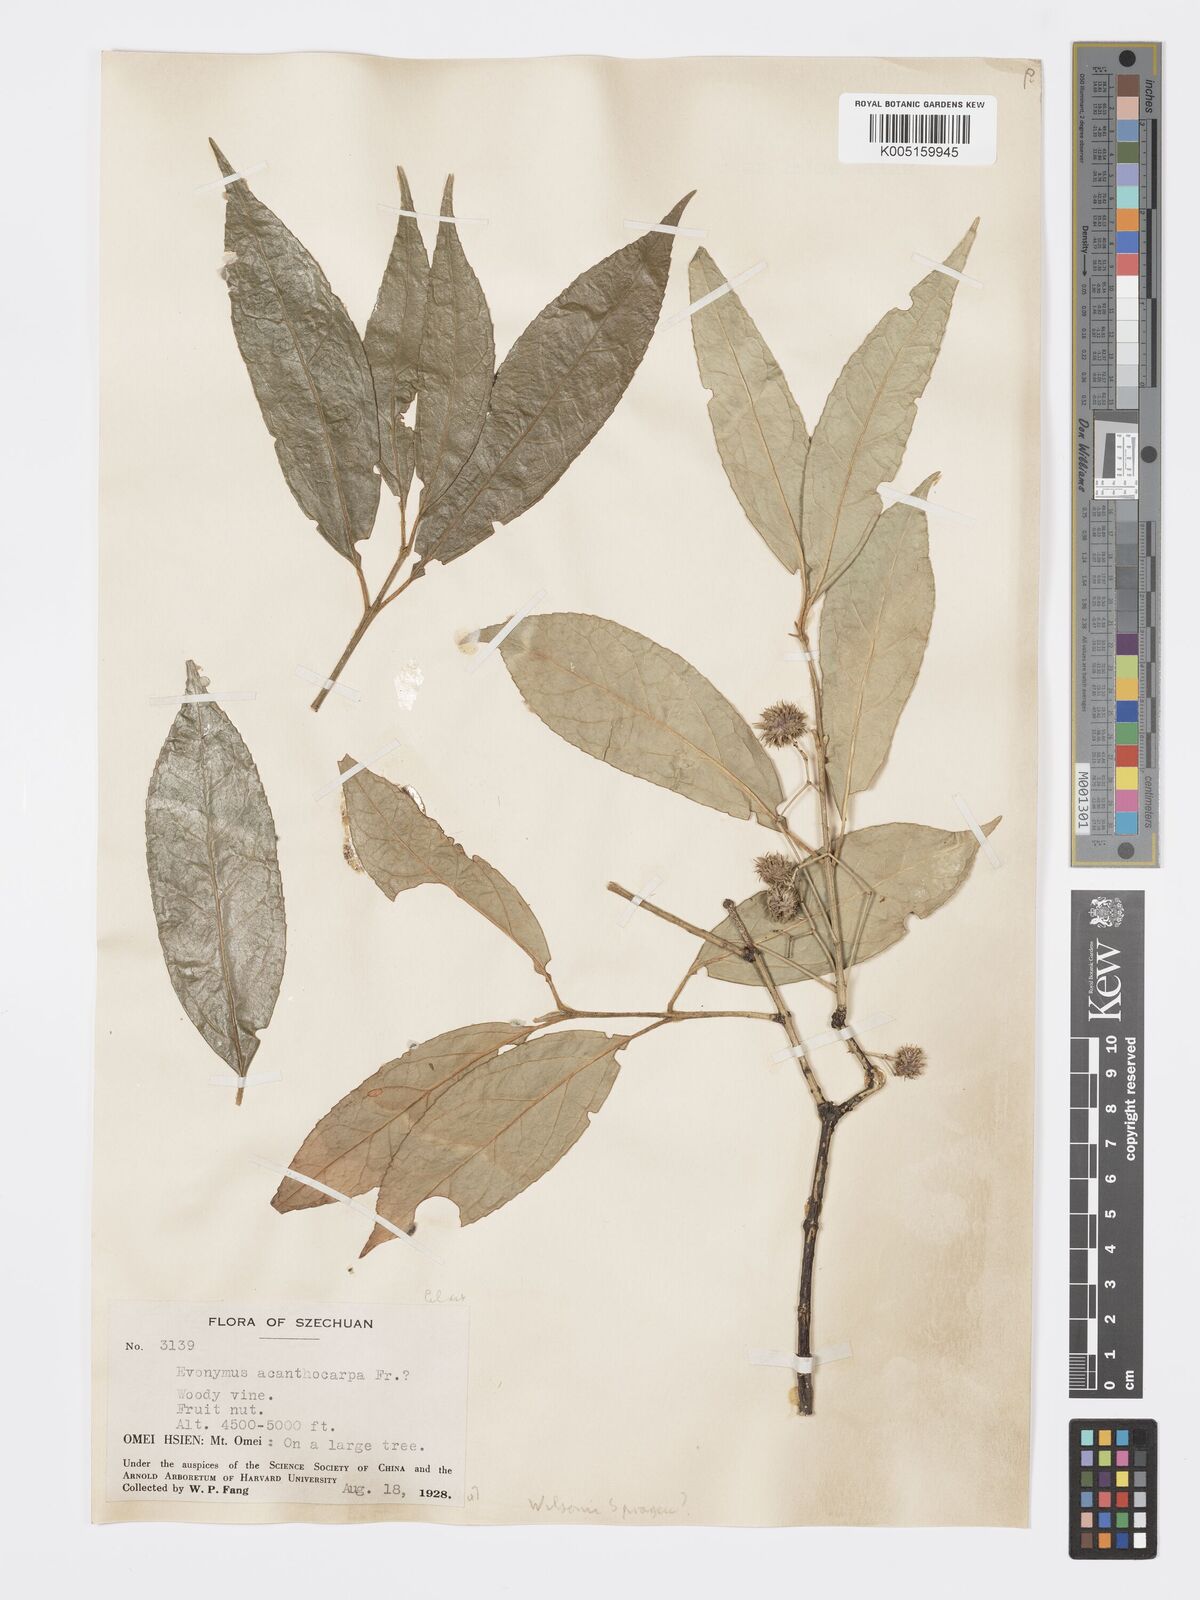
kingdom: Plantae
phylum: Tracheophyta
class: Magnoliopsida
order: Celastrales
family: Celastraceae
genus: Euonymus
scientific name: Euonymus wilsonii
